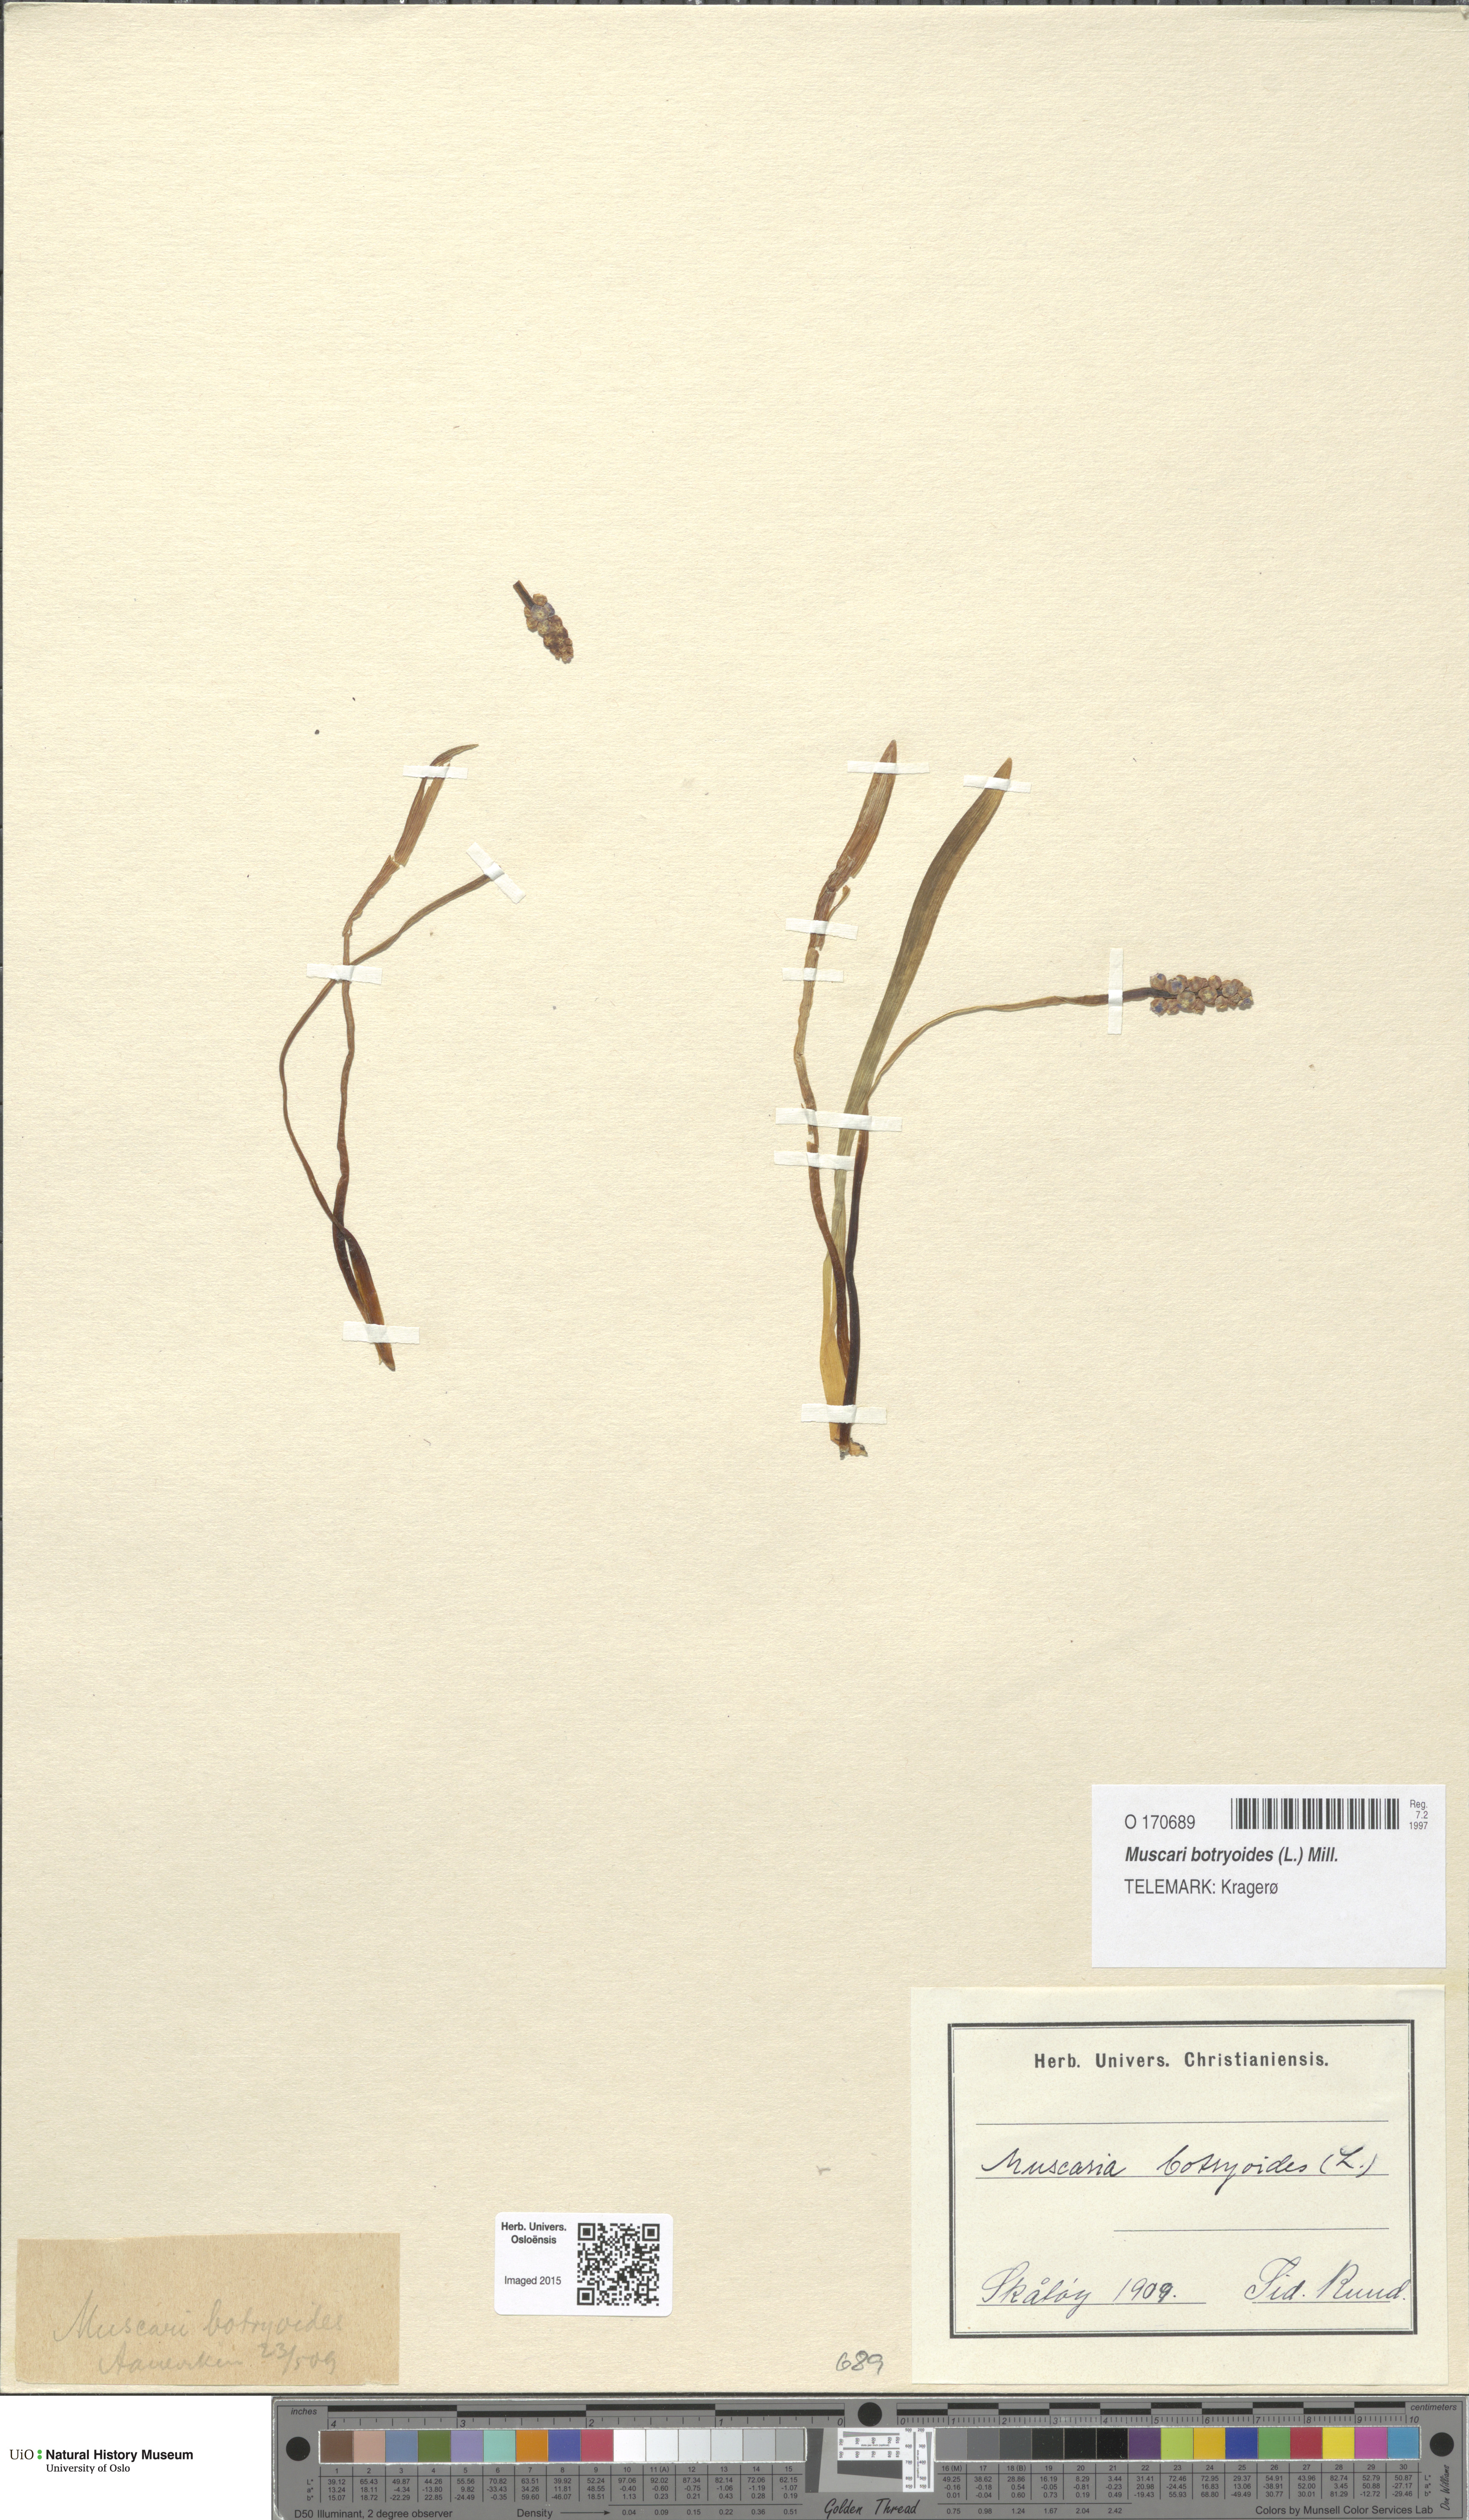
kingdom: Plantae
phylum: Tracheophyta
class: Liliopsida
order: Asparagales
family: Asparagaceae
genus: Muscari
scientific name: Muscari botryoides
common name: Compact grape-hyacinth
